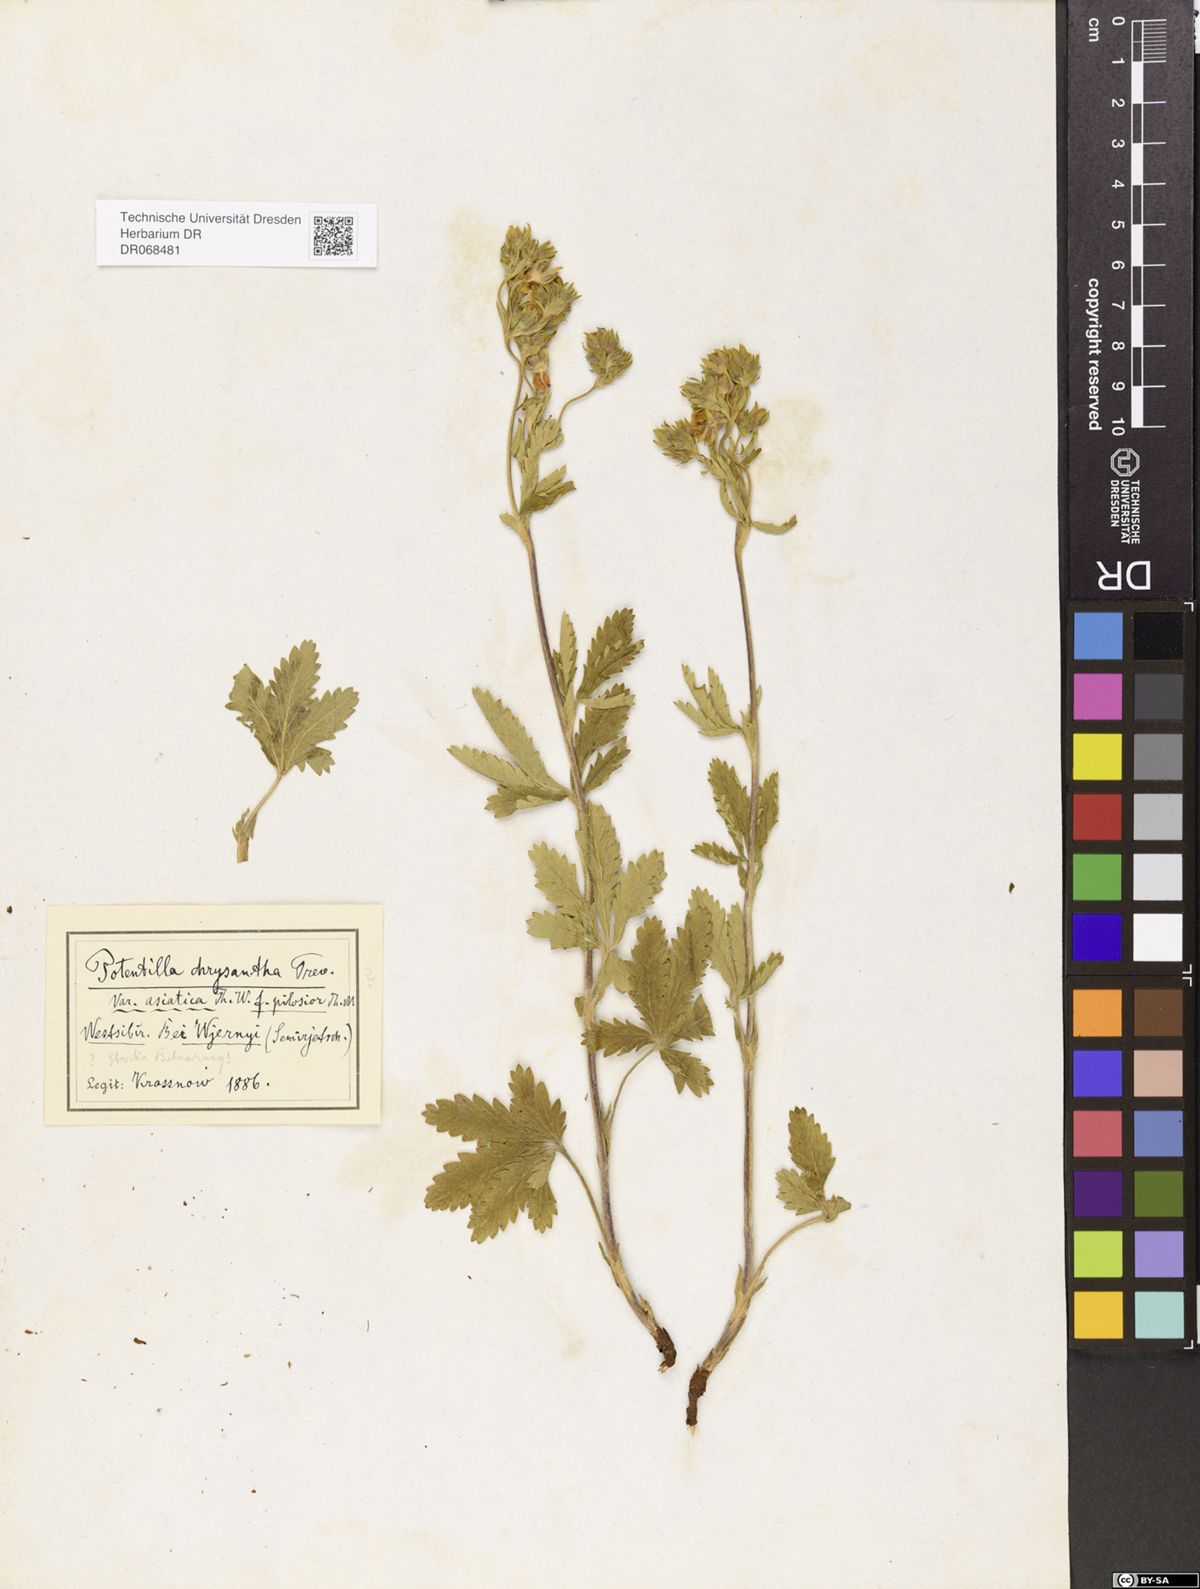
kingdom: Plantae
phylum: Tracheophyta
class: Magnoliopsida
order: Rosales
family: Rosaceae
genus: Potentilla
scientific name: Potentilla asiatica
